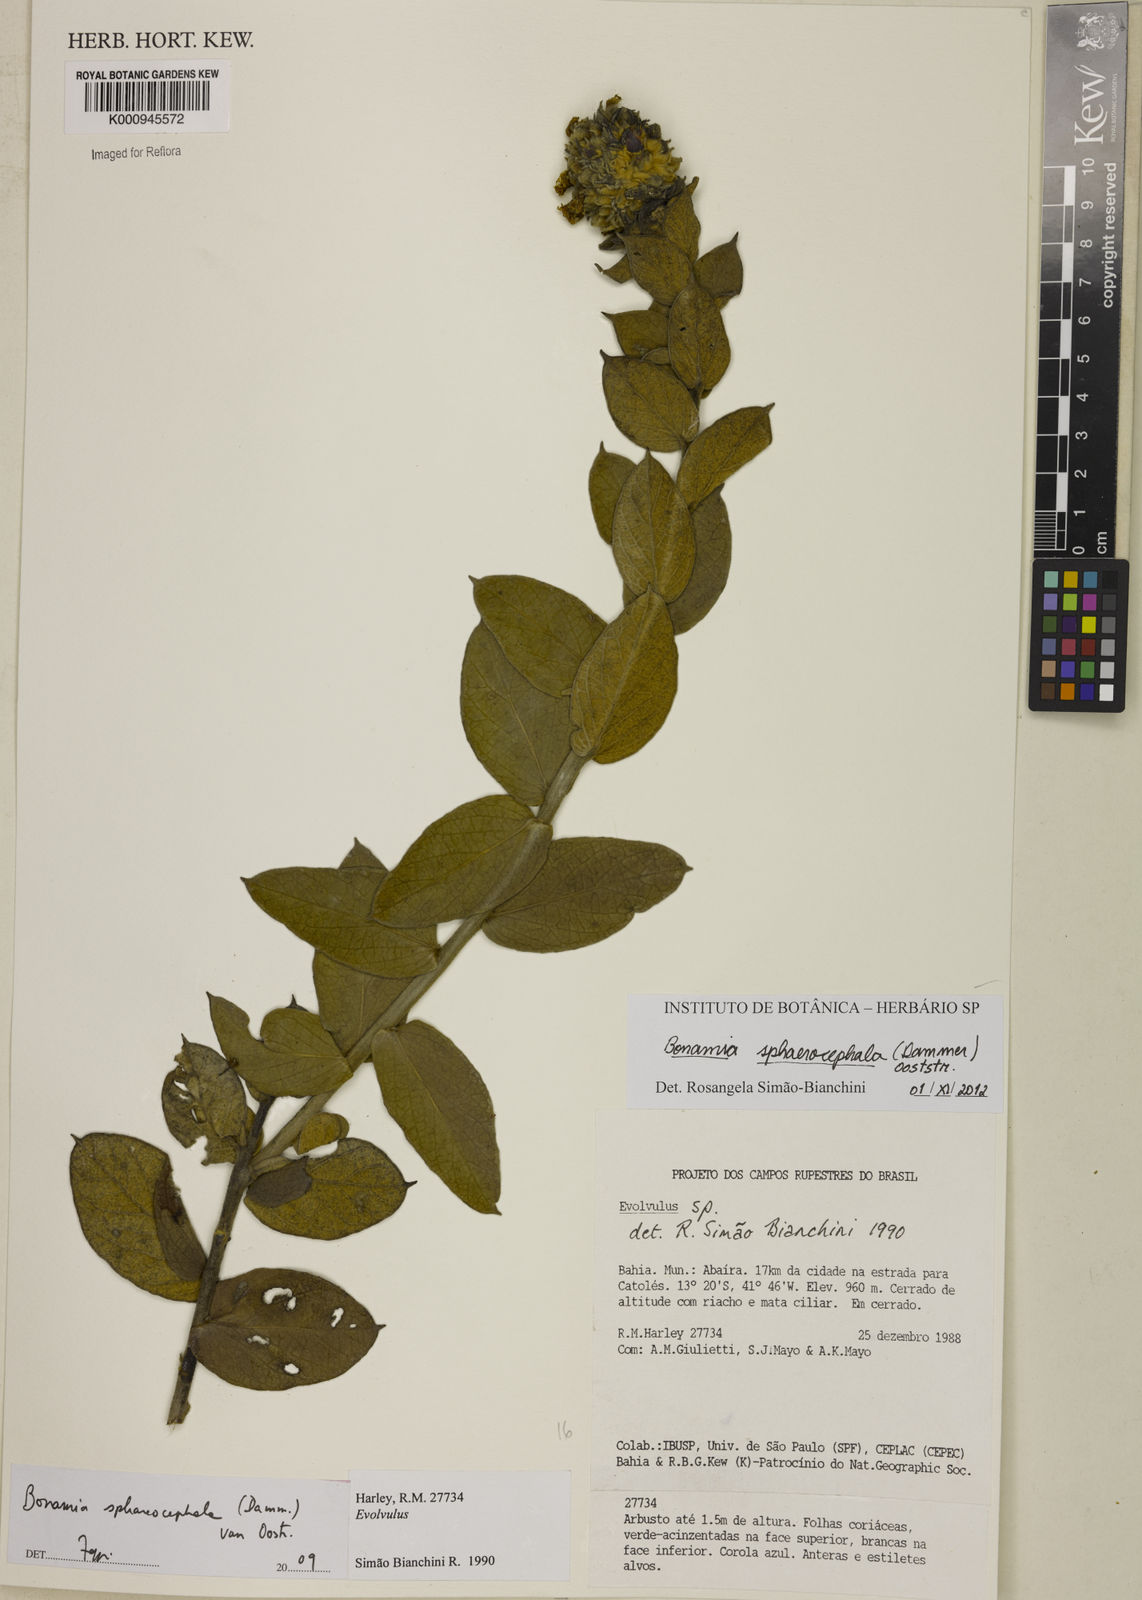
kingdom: Plantae
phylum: Tracheophyta
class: Magnoliopsida
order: Solanales
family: Convolvulaceae
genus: Bonamia
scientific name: Bonamia sphaerocephala
